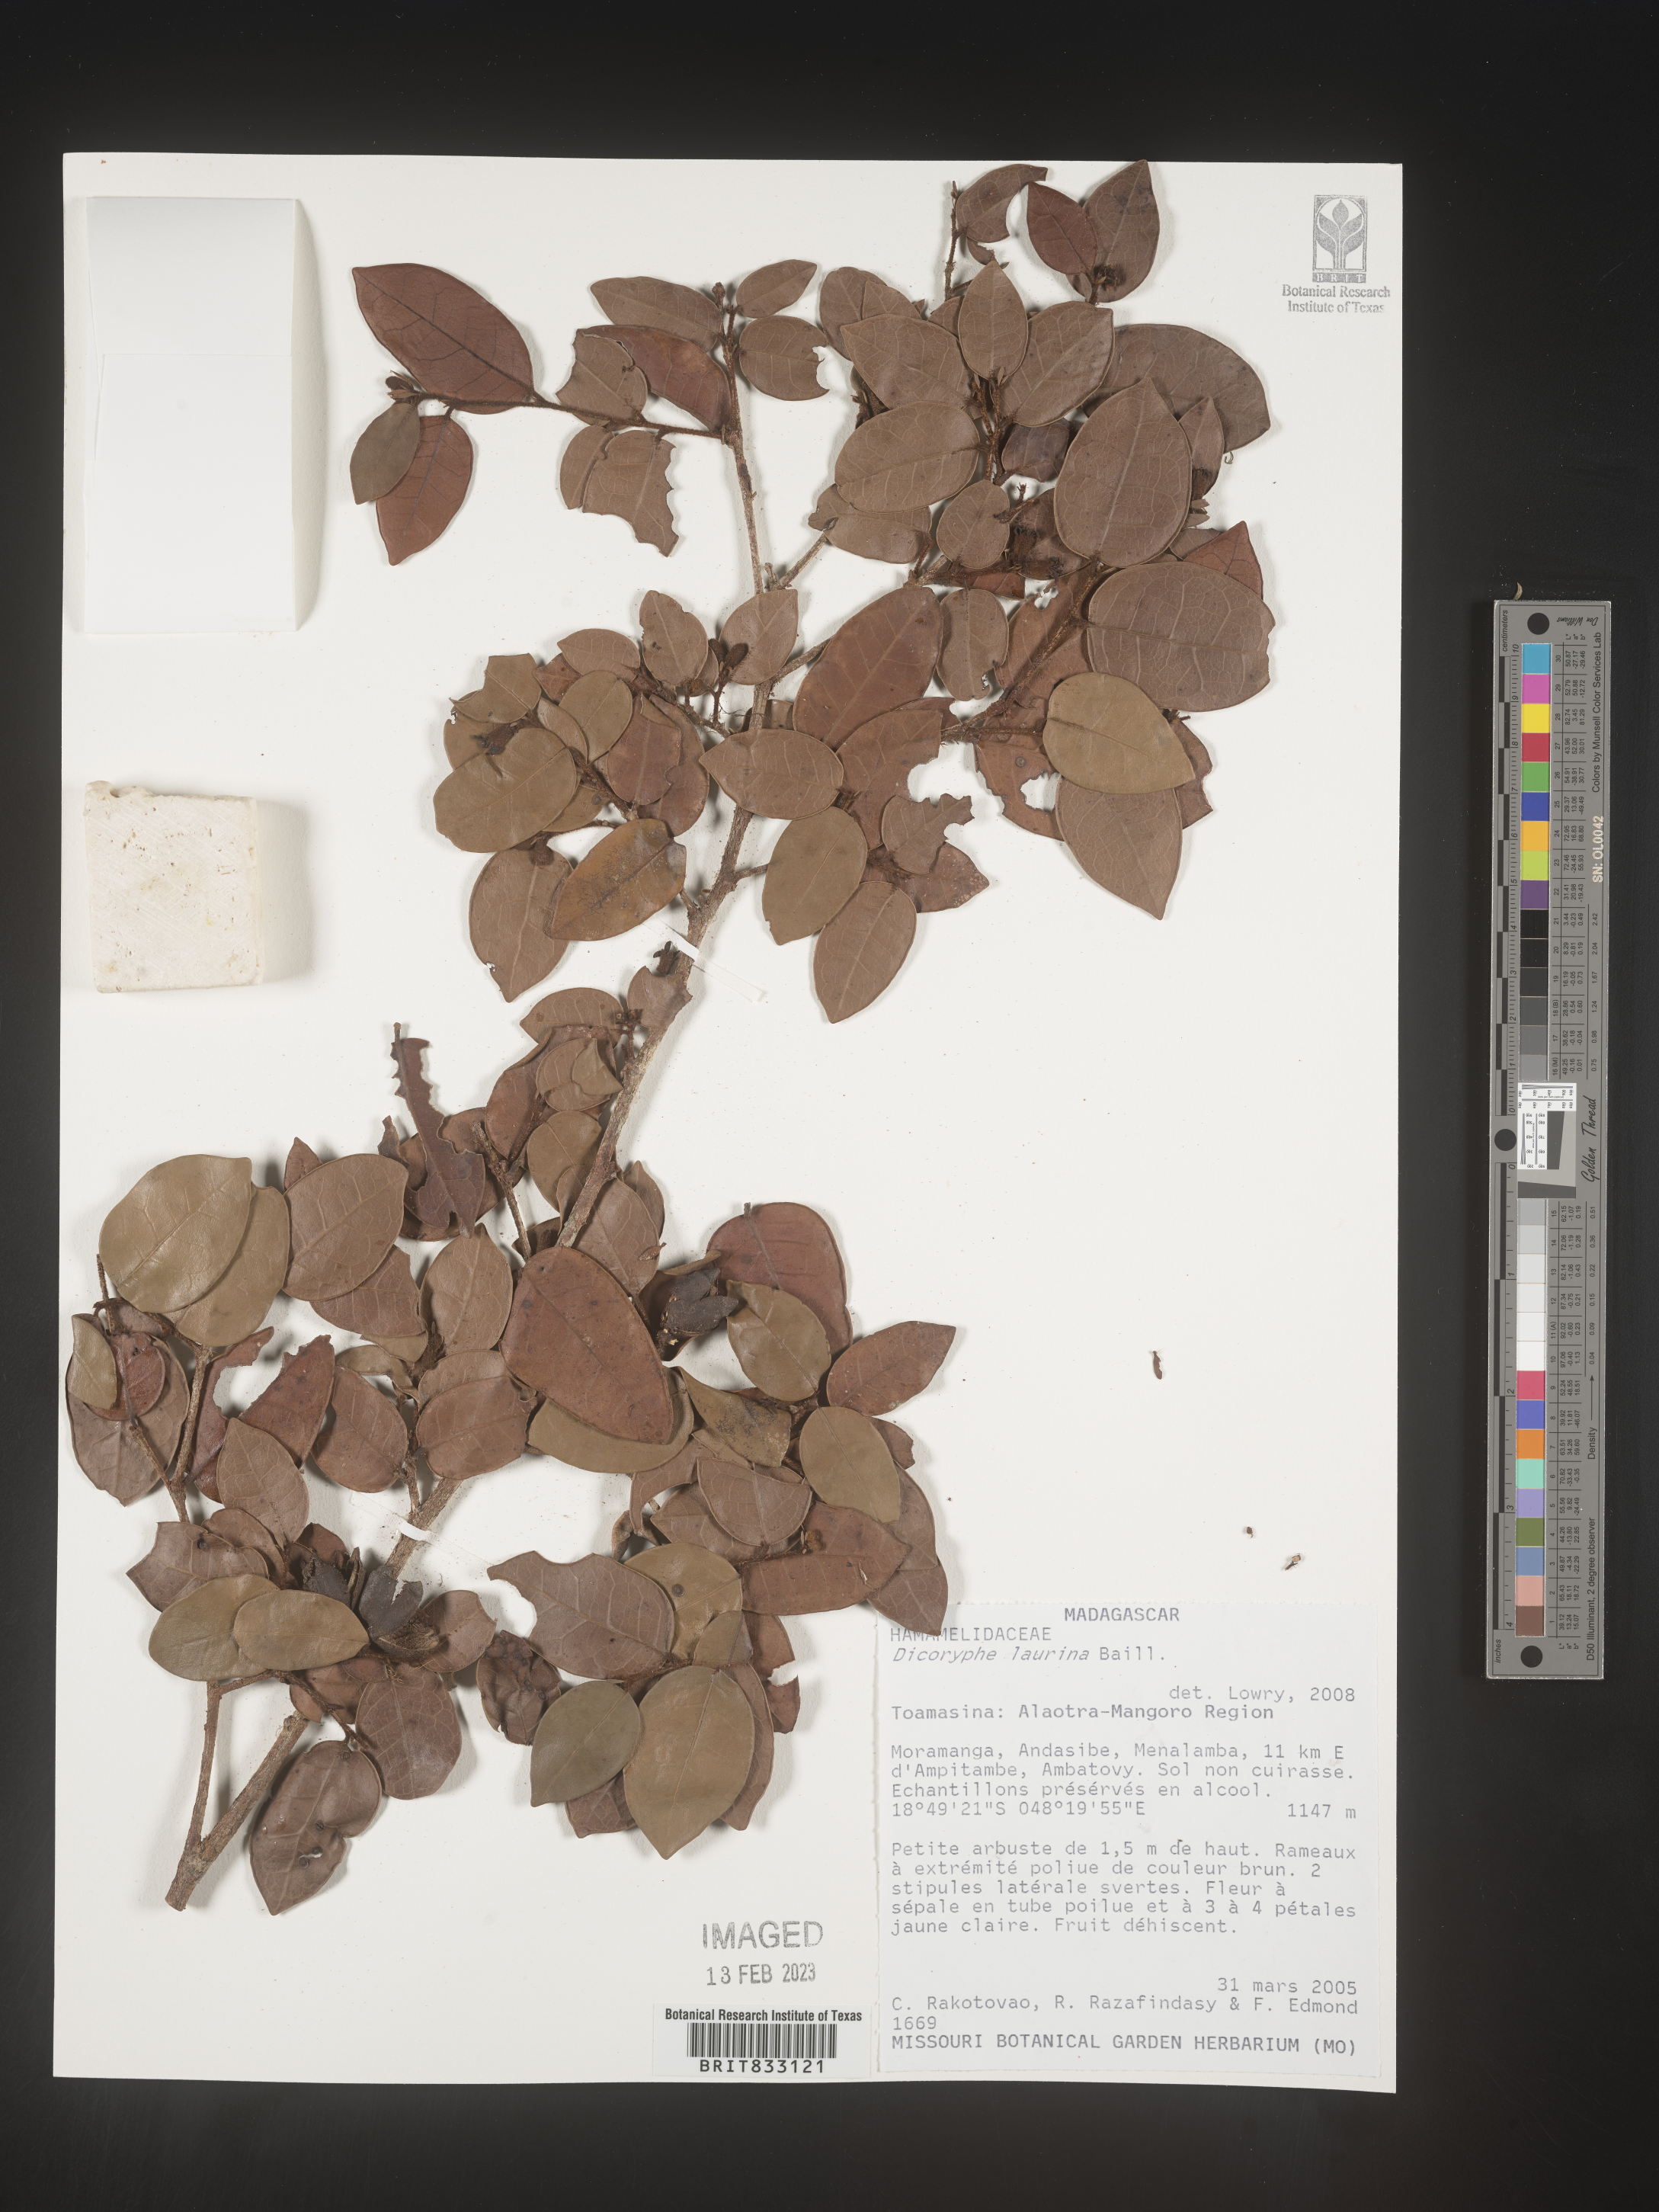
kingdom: Plantae
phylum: Tracheophyta
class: Magnoliopsida
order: Saxifragales
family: Hamamelidaceae
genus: Dicoryphe
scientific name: Dicoryphe laurina
